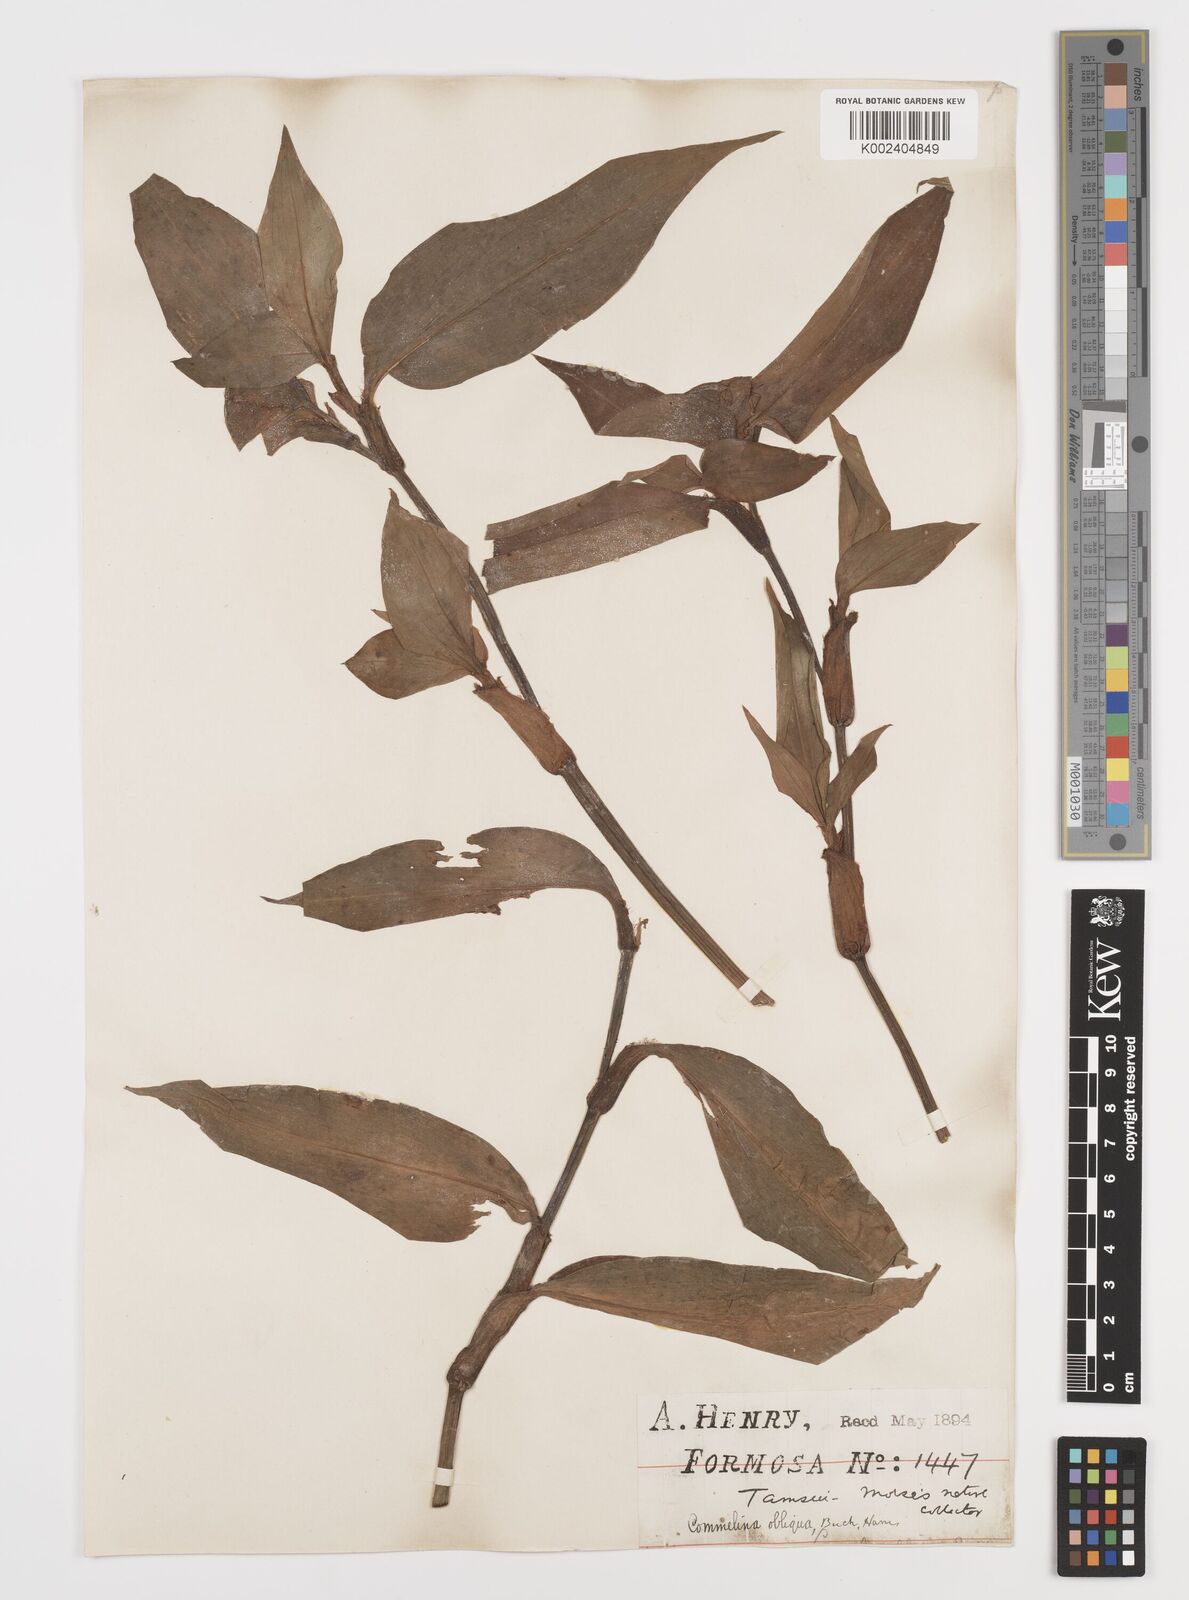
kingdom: Plantae
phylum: Tracheophyta
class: Liliopsida
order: Commelinales
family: Commelinaceae
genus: Commelina
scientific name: Commelina obliqua
